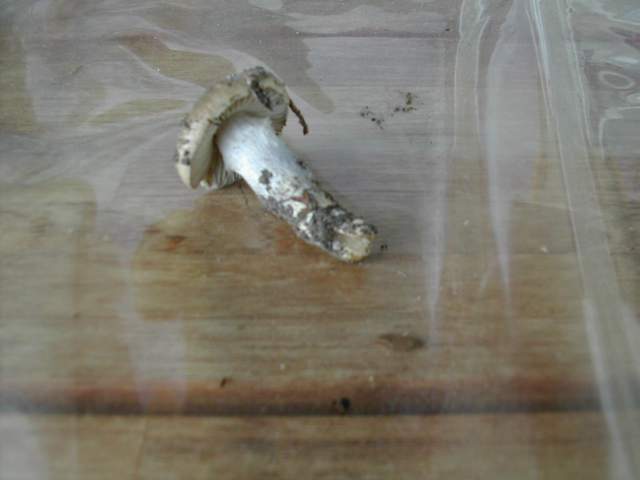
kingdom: Fungi
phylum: Basidiomycota
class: Agaricomycetes
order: Agaricales
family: Cortinariaceae
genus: Cortinarius
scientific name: Cortinarius elatior
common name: høj slørhat
